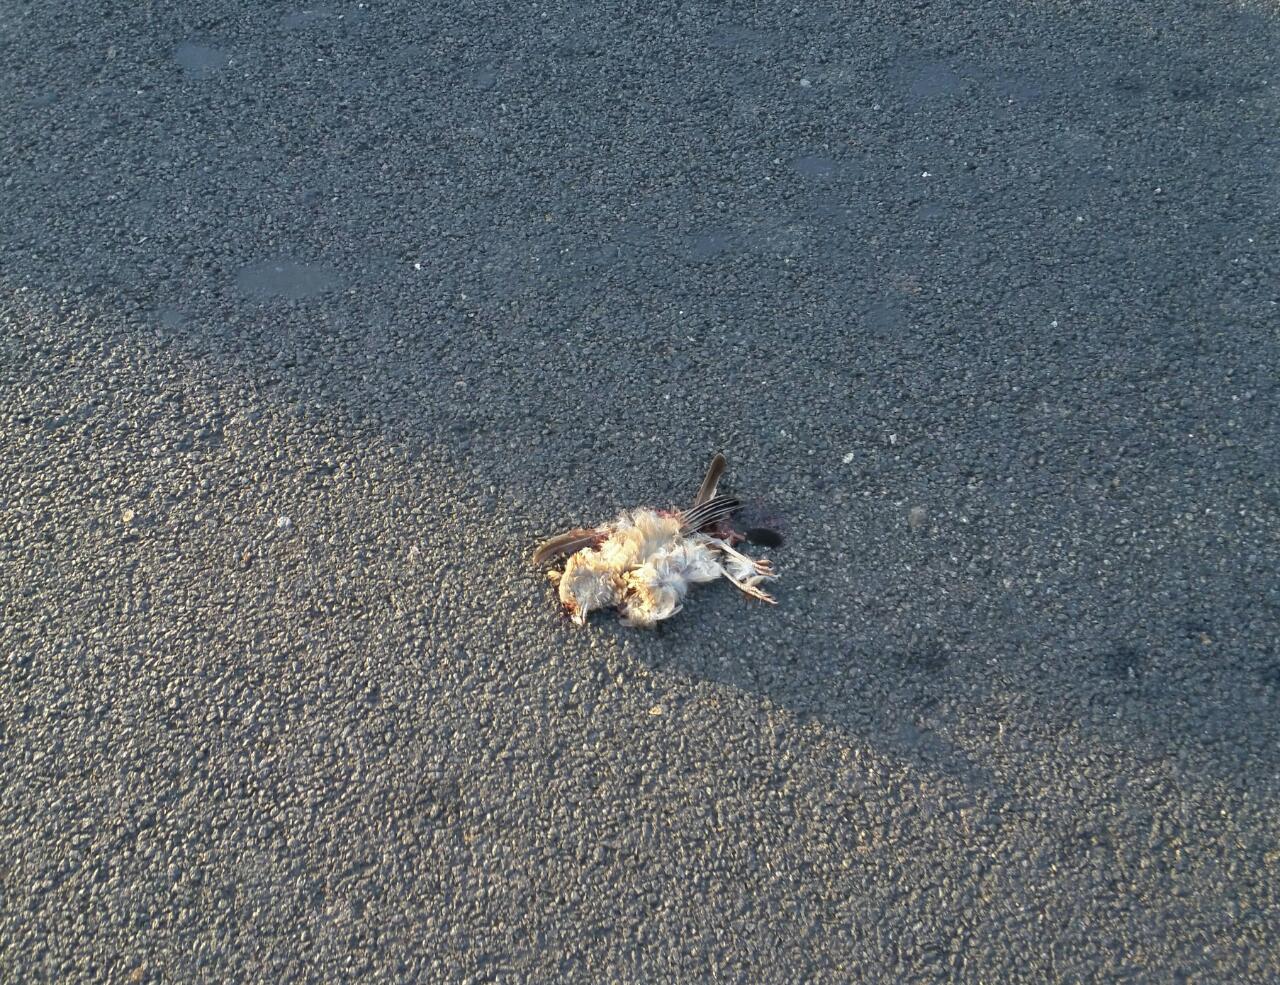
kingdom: Animalia
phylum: Chordata
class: Aves
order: Passeriformes
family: Leiothrichidae
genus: Turdoides
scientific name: Turdoides affinis
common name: Yellow-billed babbler
